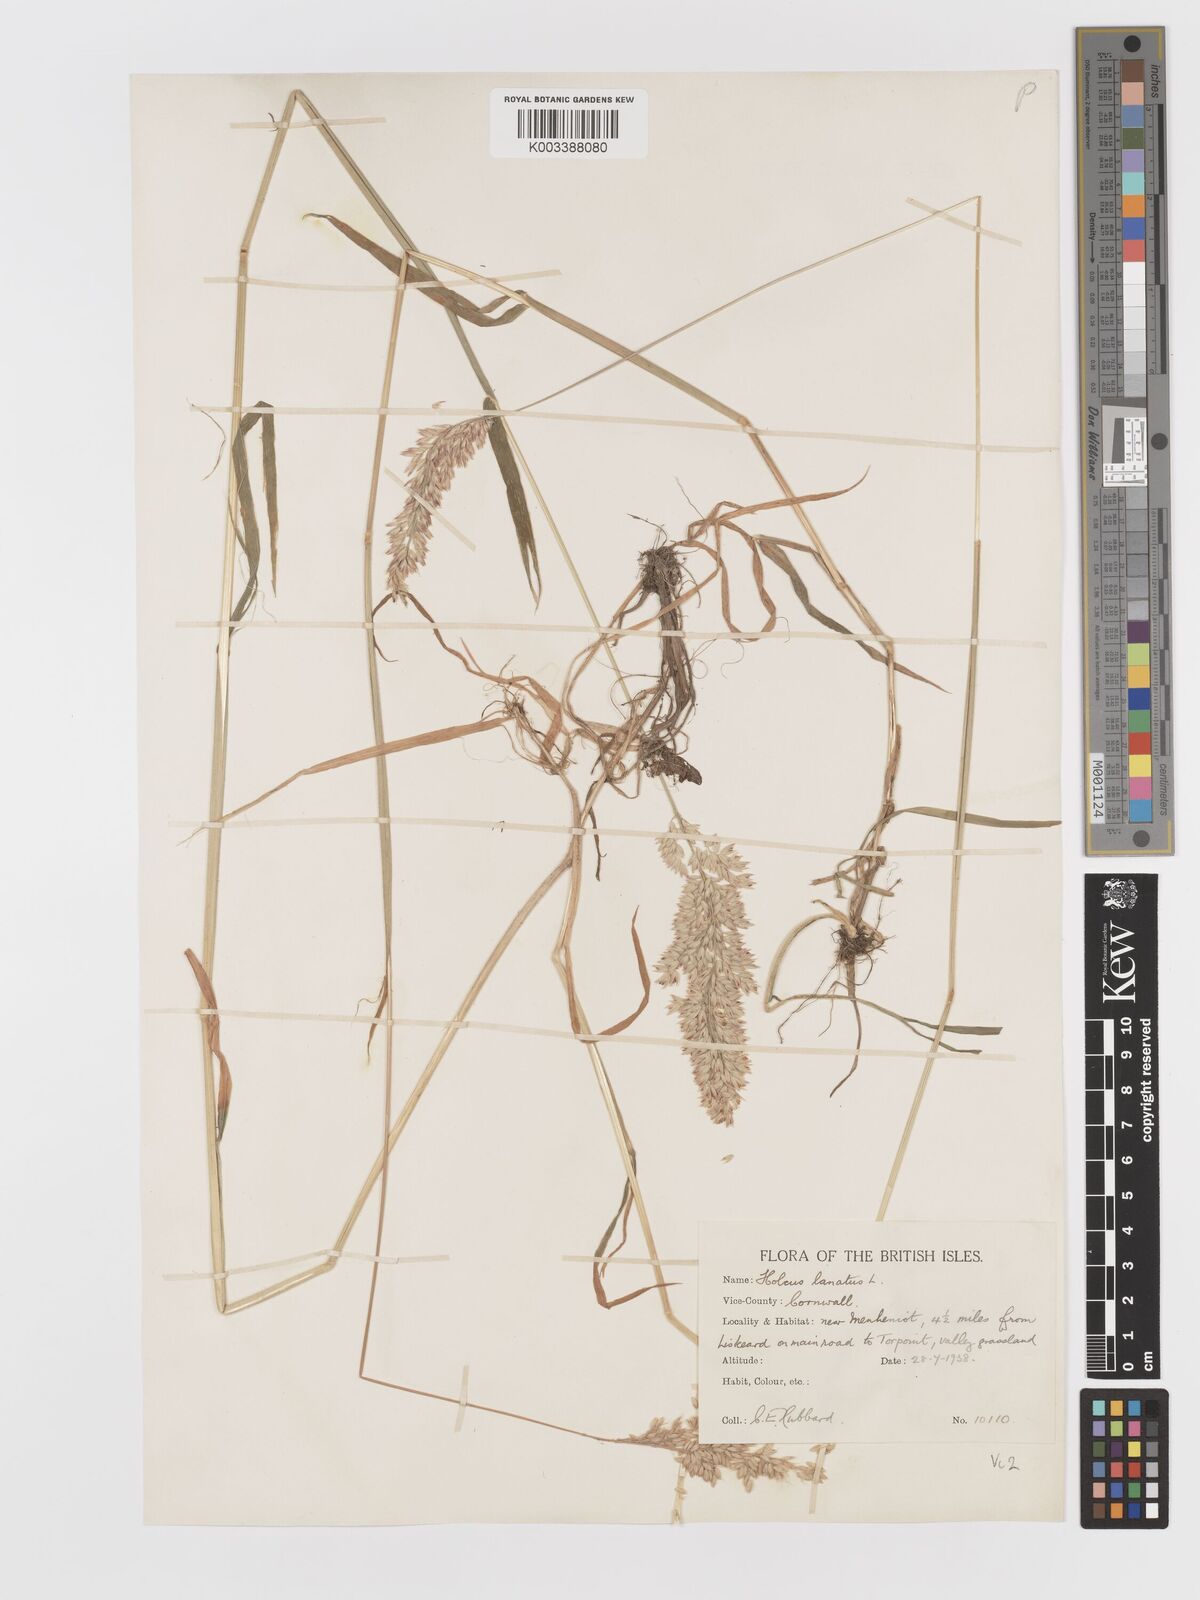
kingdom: Plantae
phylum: Tracheophyta
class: Liliopsida
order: Poales
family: Poaceae
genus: Holcus
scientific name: Holcus mollis
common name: Creeping velvetgrass
